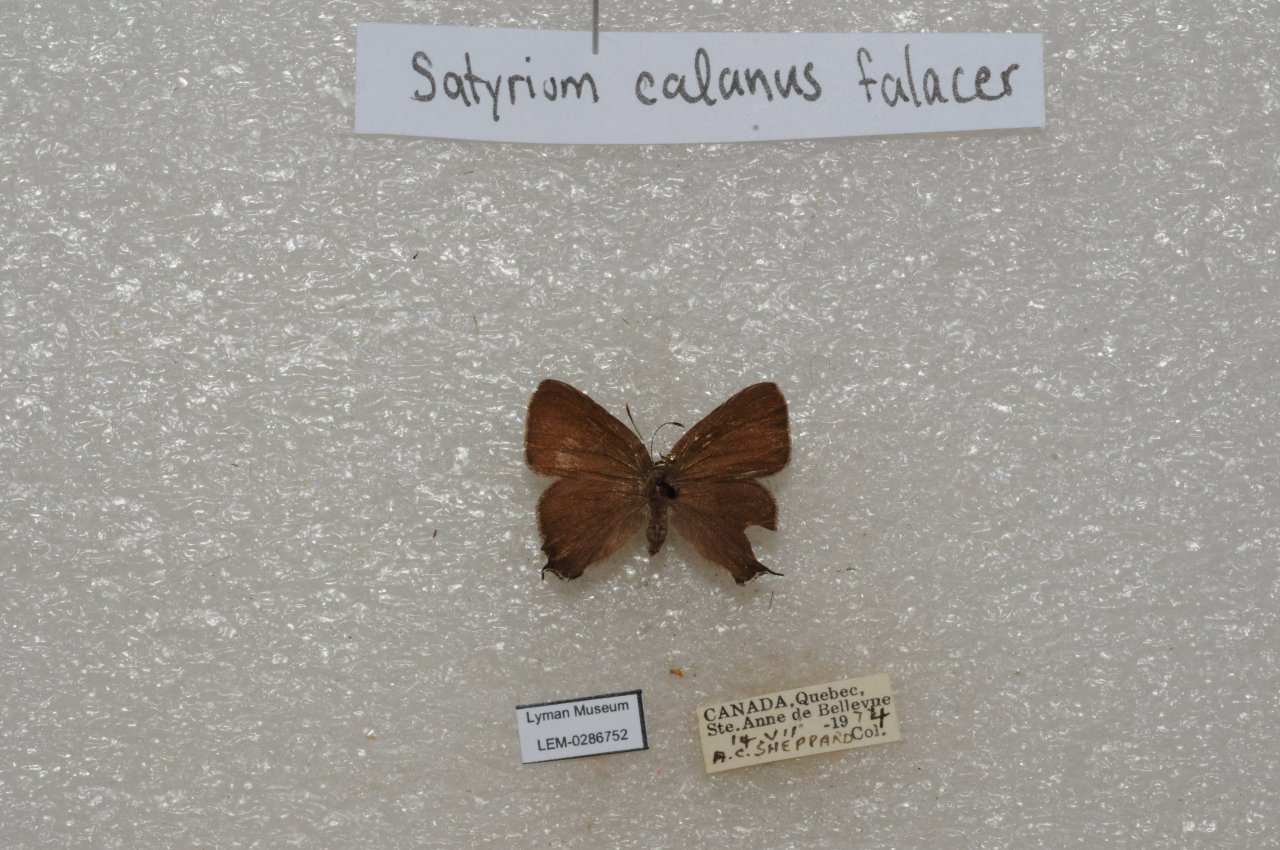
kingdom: Animalia
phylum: Arthropoda
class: Insecta
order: Lepidoptera
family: Lycaenidae
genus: Satyrium
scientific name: Satyrium calanus
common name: Banded Hairstreak
